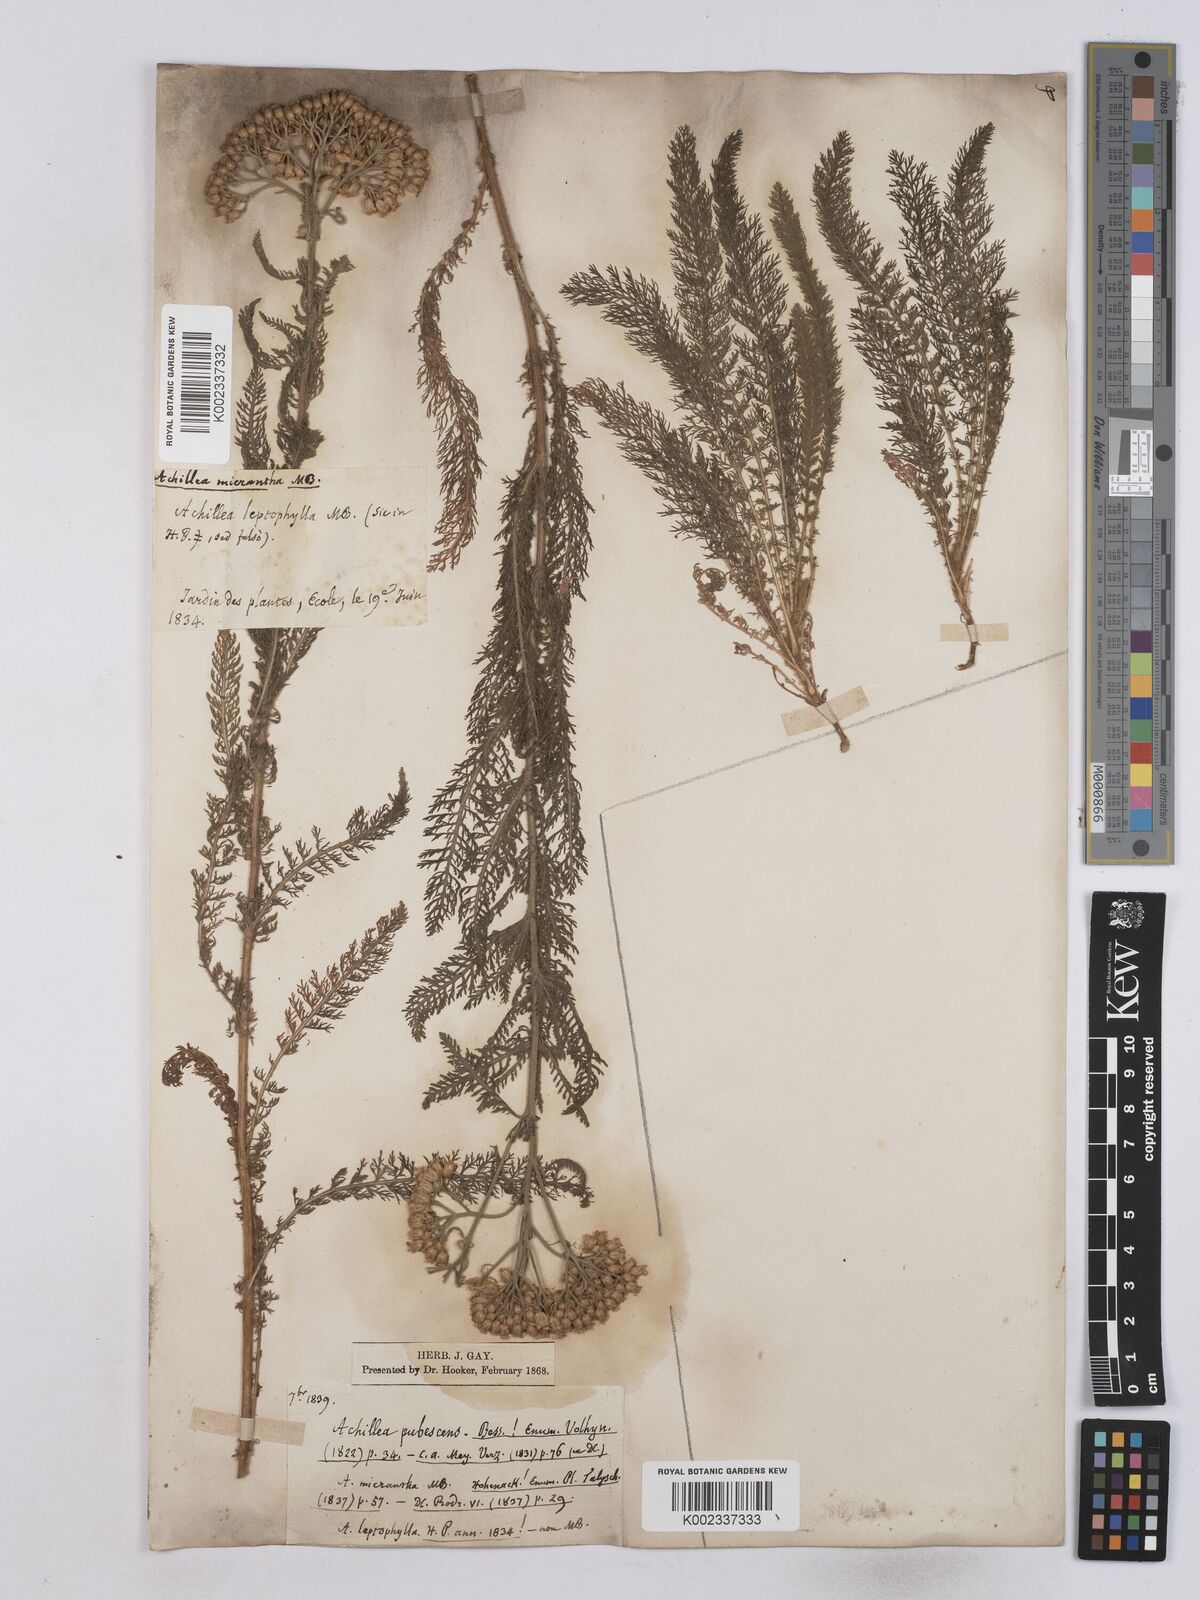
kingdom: Plantae
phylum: Tracheophyta
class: Magnoliopsida
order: Asterales
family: Asteraceae
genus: Achillea
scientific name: Achillea micrantha
